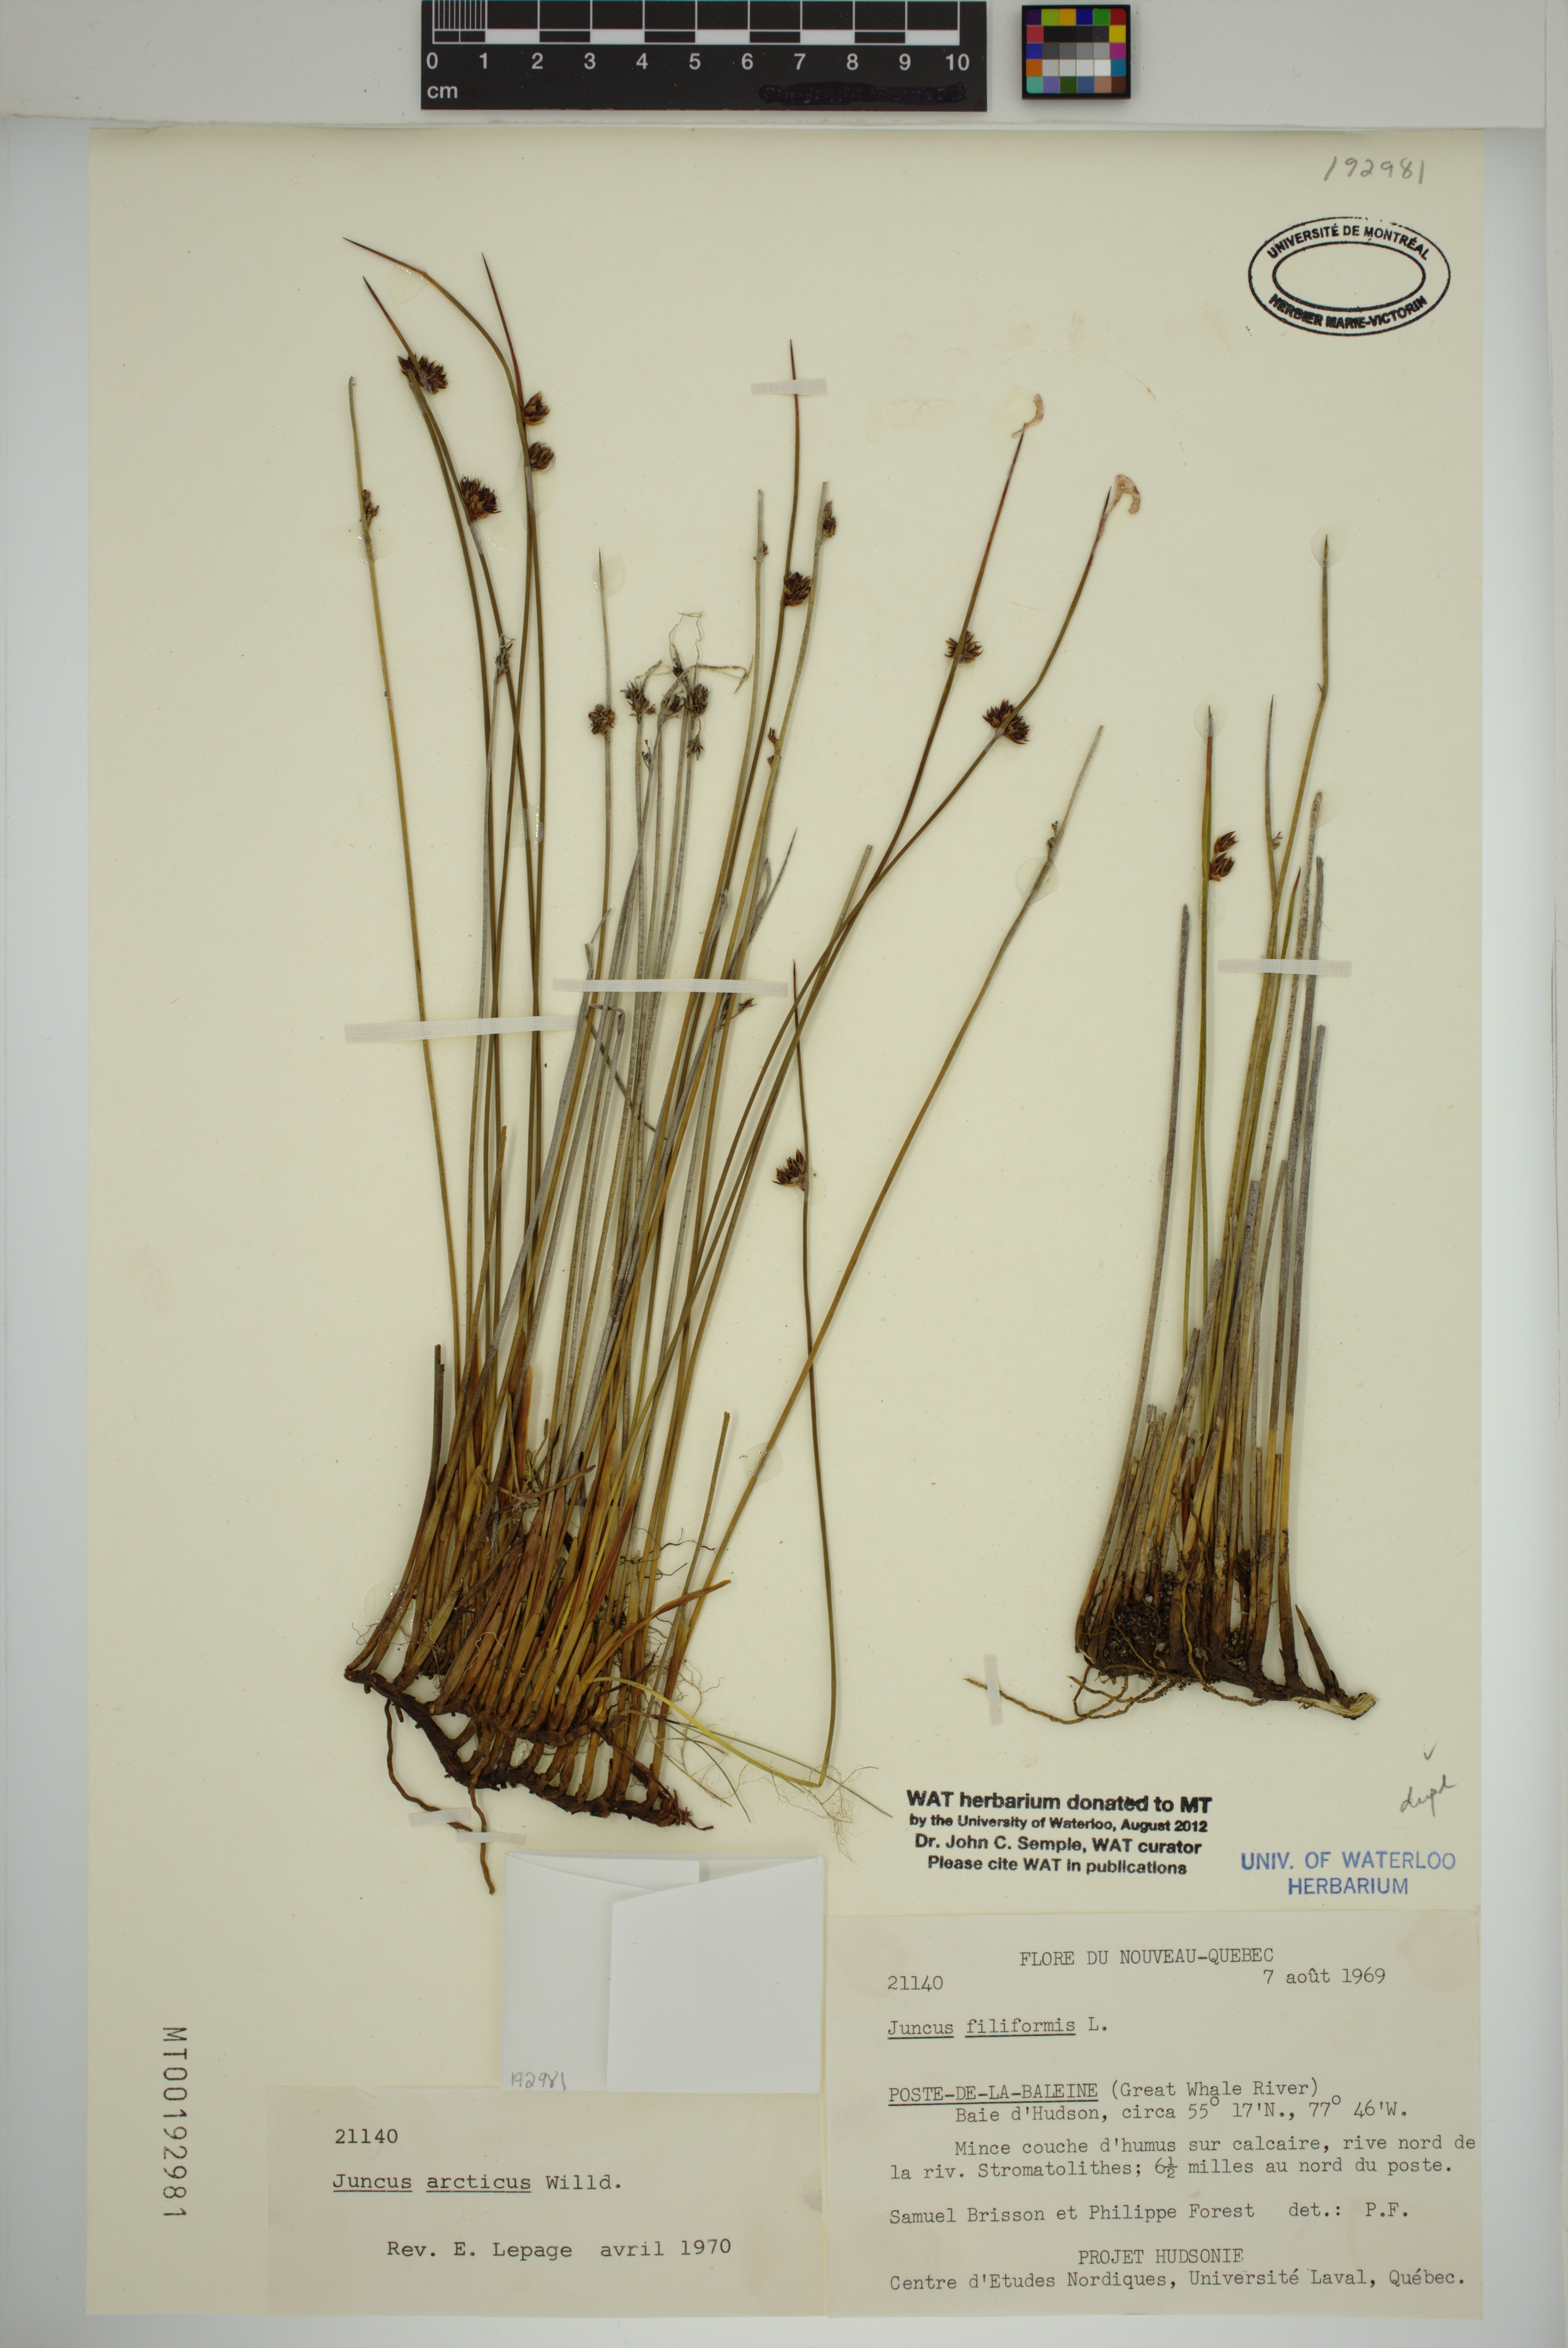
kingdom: Plantae
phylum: Tracheophyta
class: Liliopsida
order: Poales
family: Juncaceae
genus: Juncus
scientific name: Juncus arcticus
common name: Arctic rush
